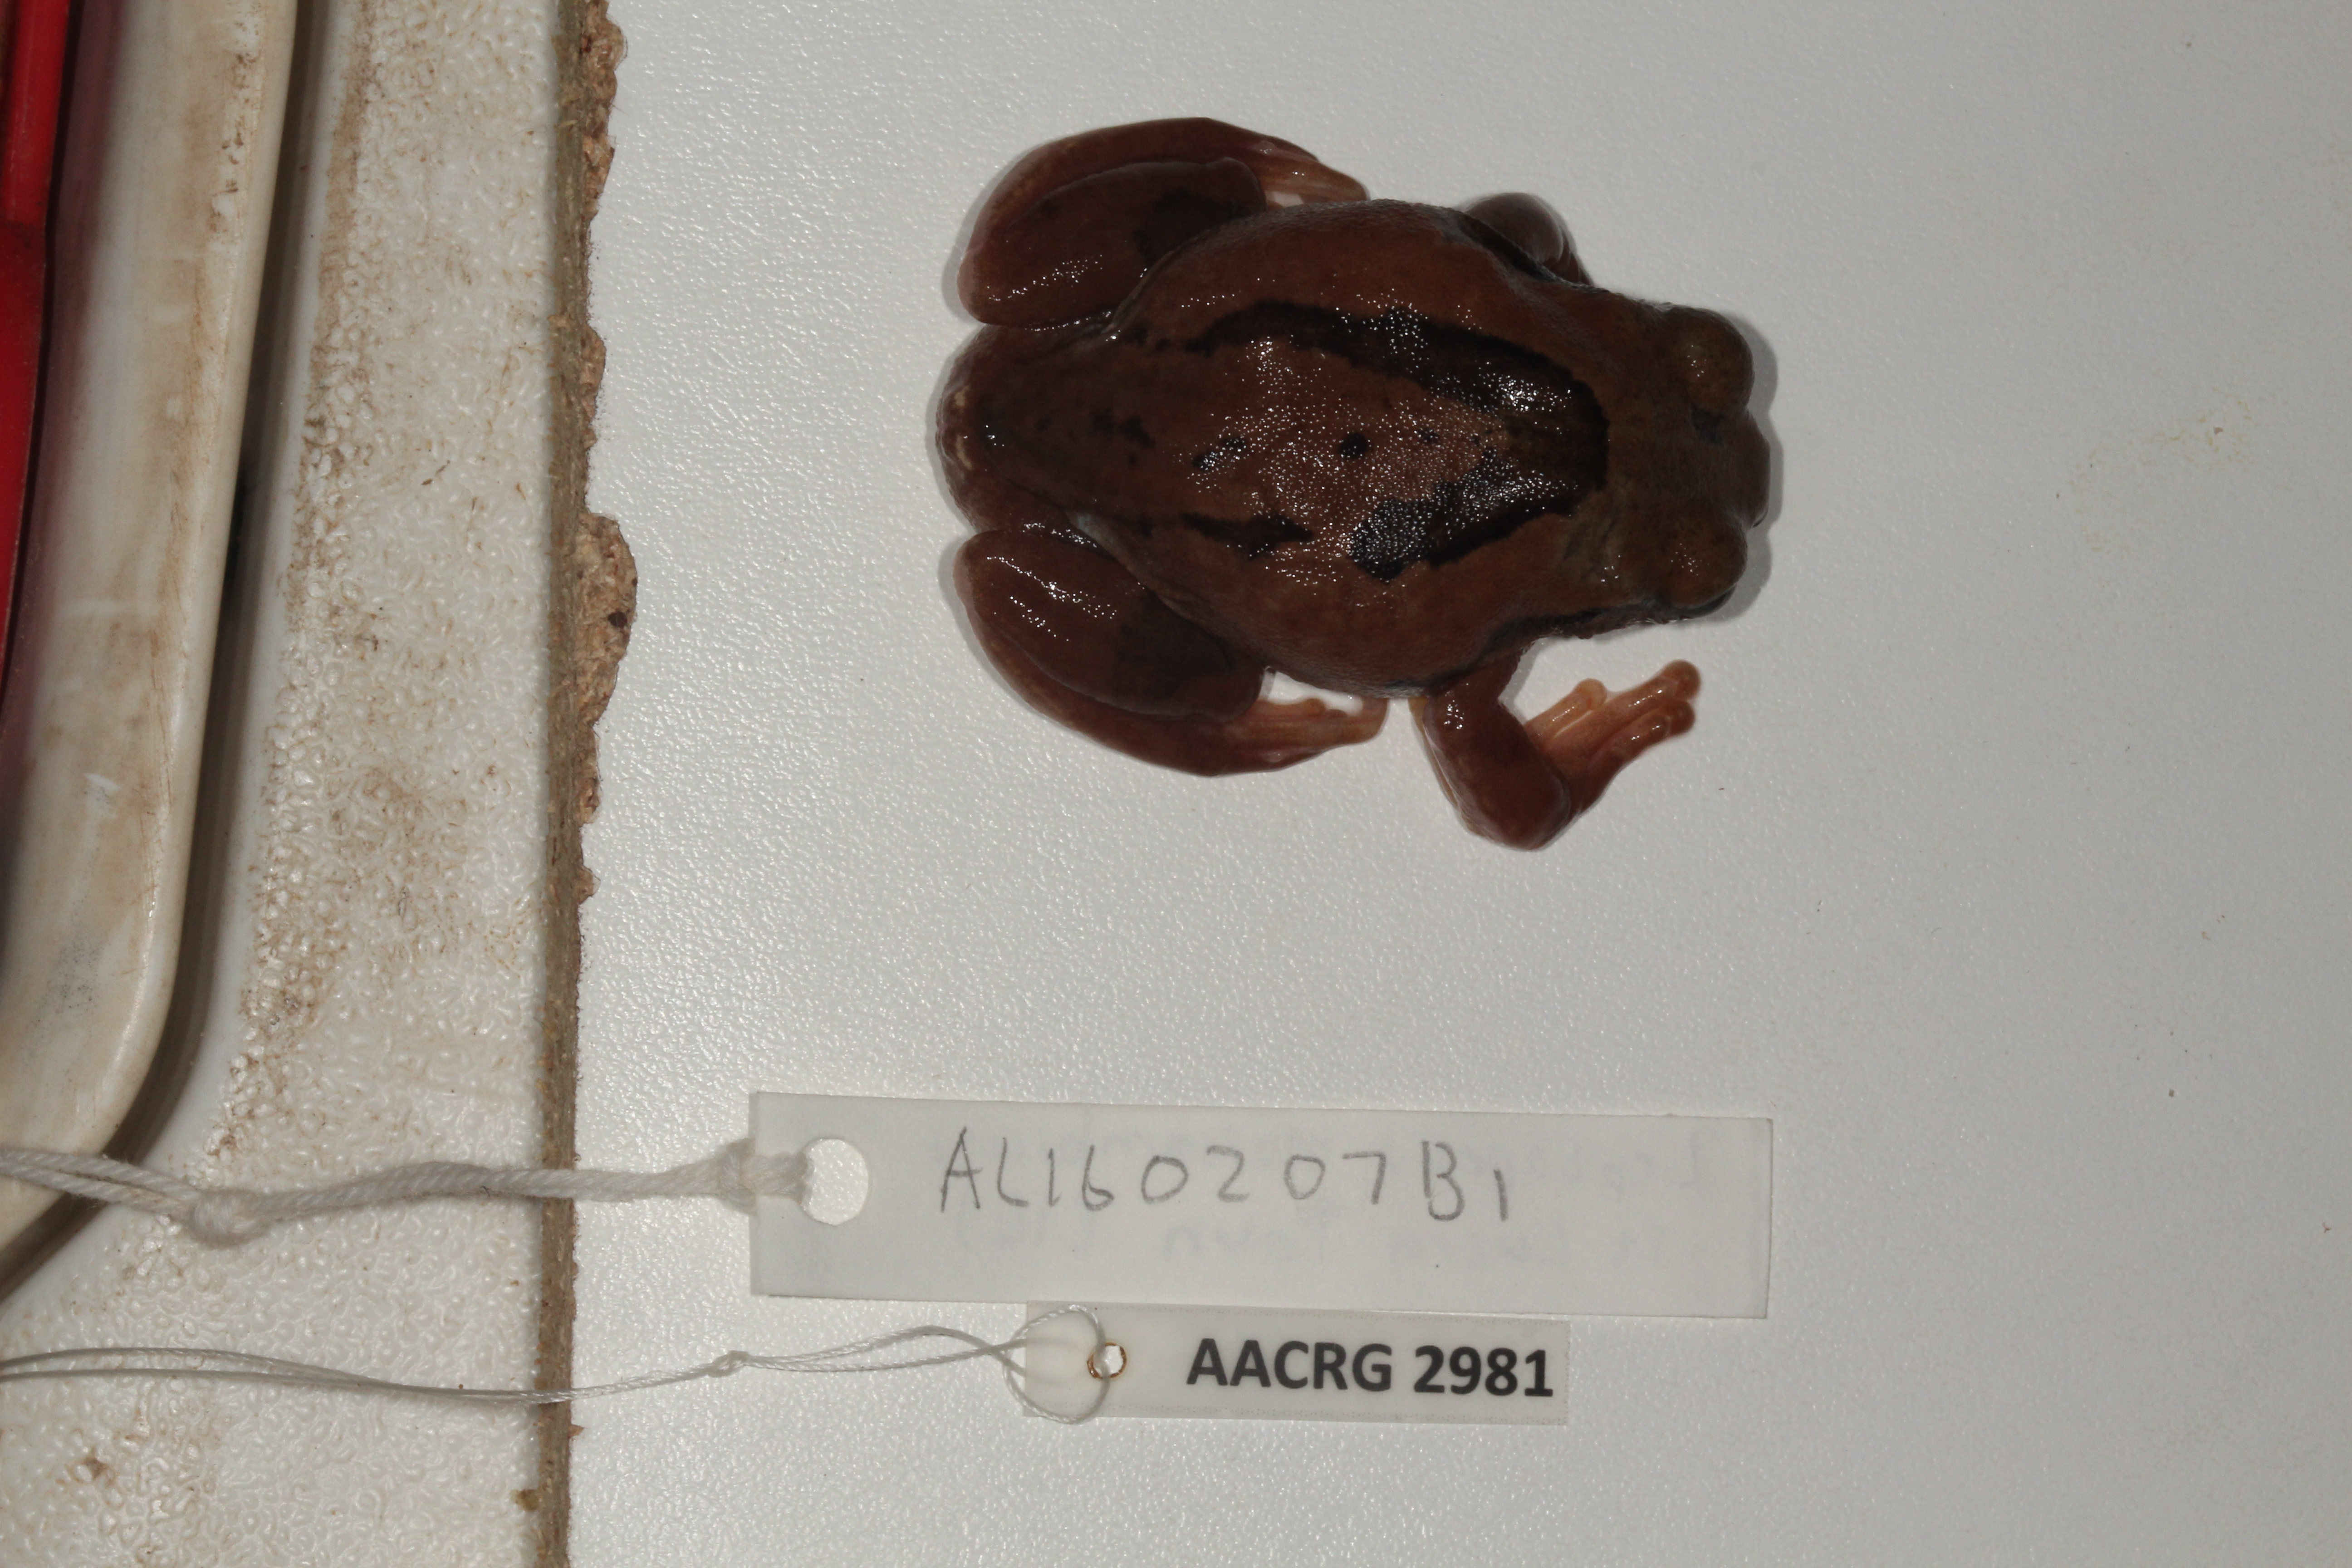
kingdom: Animalia
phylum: Chordata
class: Amphibia
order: Anura
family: Arthroleptidae
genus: Leptopelis
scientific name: Leptopelis mossambicus
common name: Mozambique tree frog
